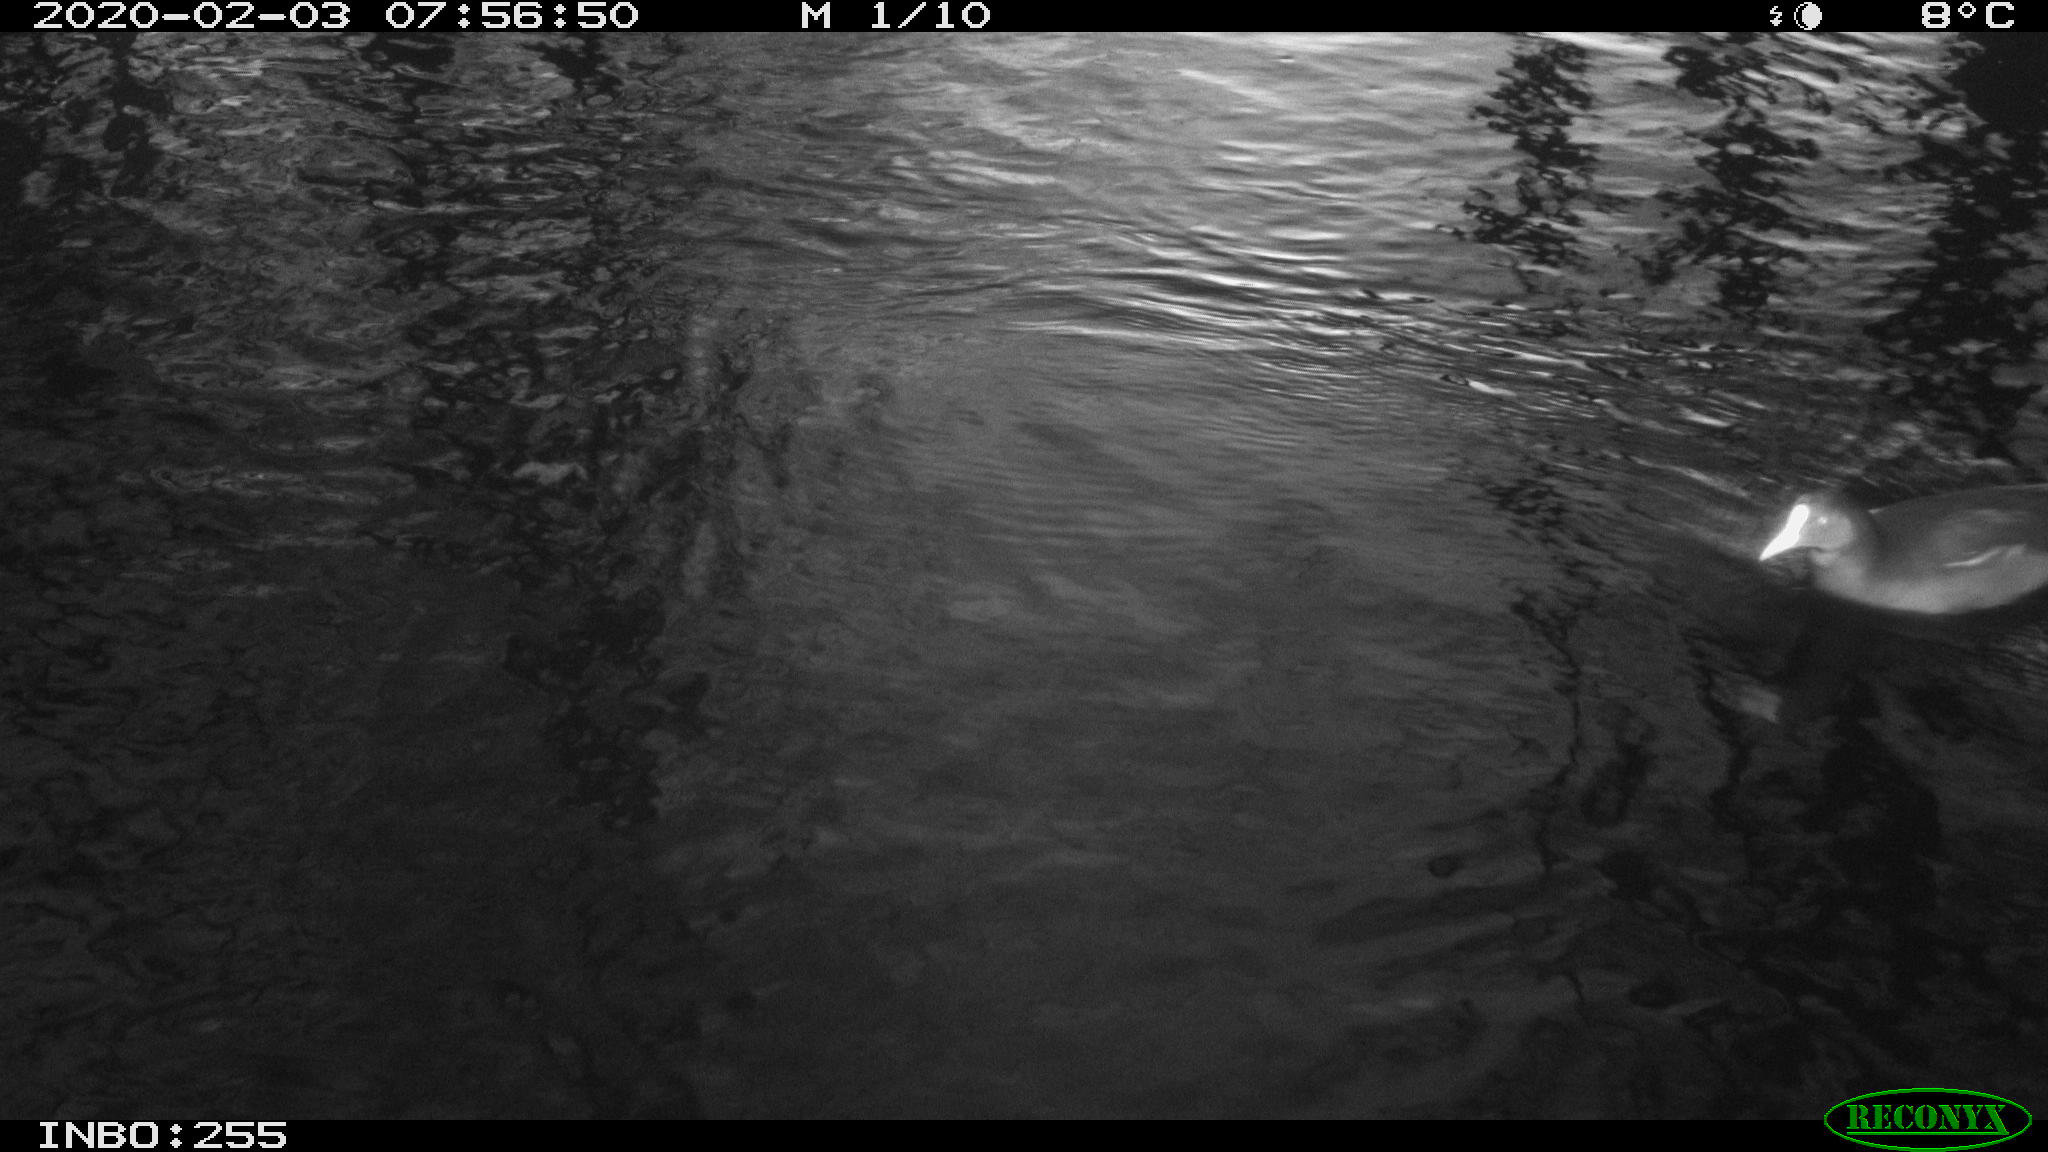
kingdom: Animalia
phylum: Chordata
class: Aves
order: Gruiformes
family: Rallidae
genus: Gallinula
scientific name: Gallinula chloropus
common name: Common moorhen
